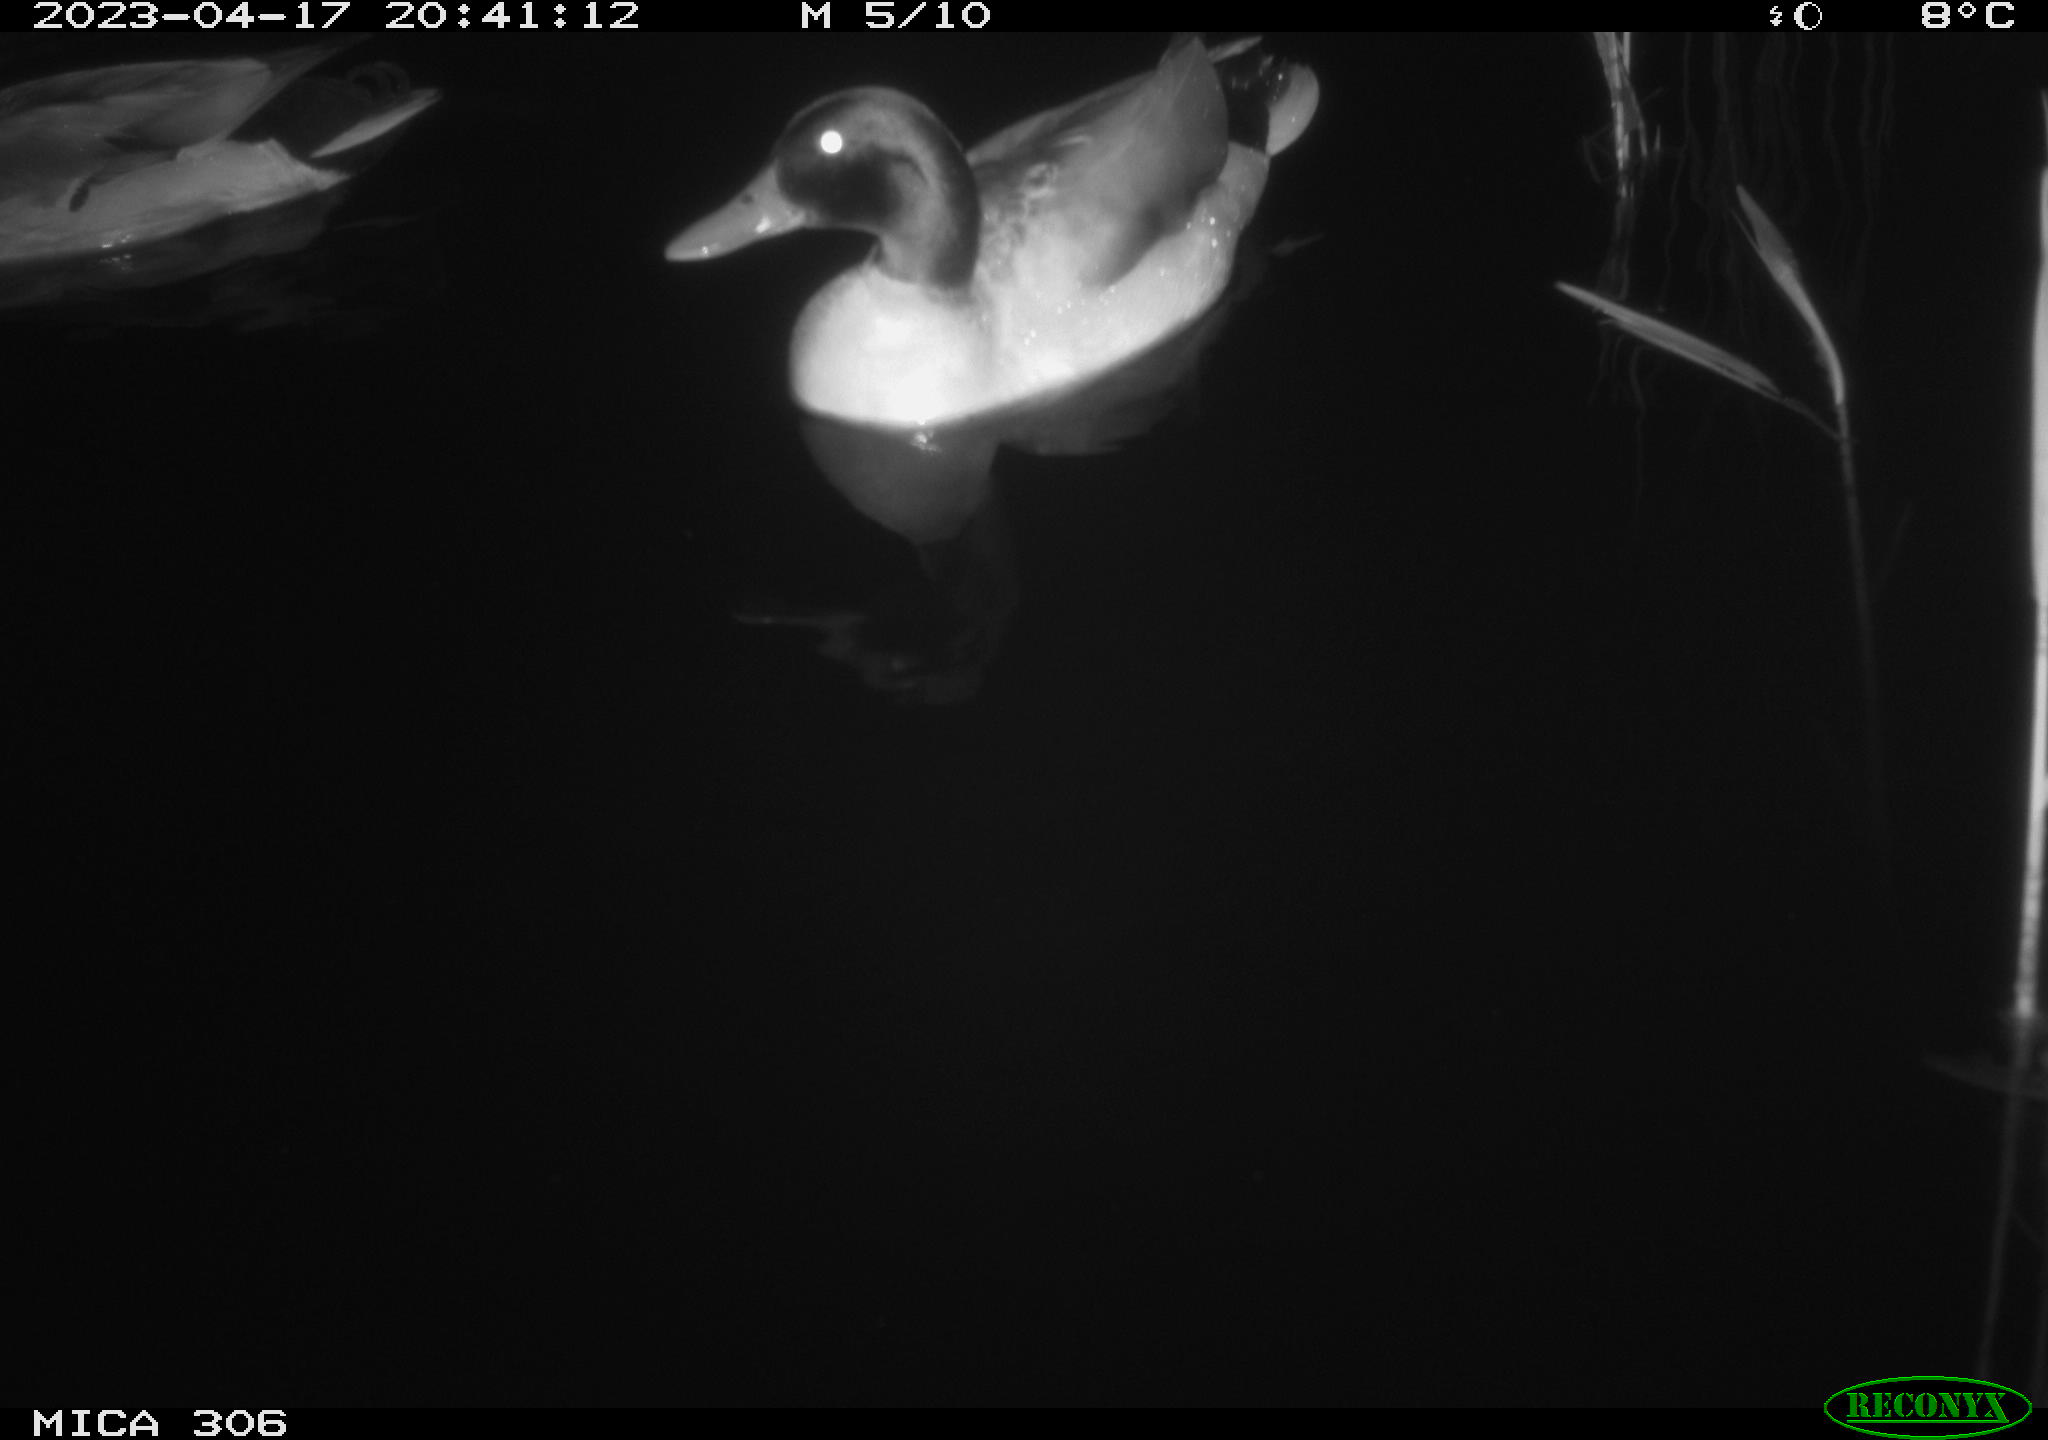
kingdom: Animalia
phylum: Chordata
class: Aves
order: Anseriformes
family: Anatidae
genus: Anas
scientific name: Anas
